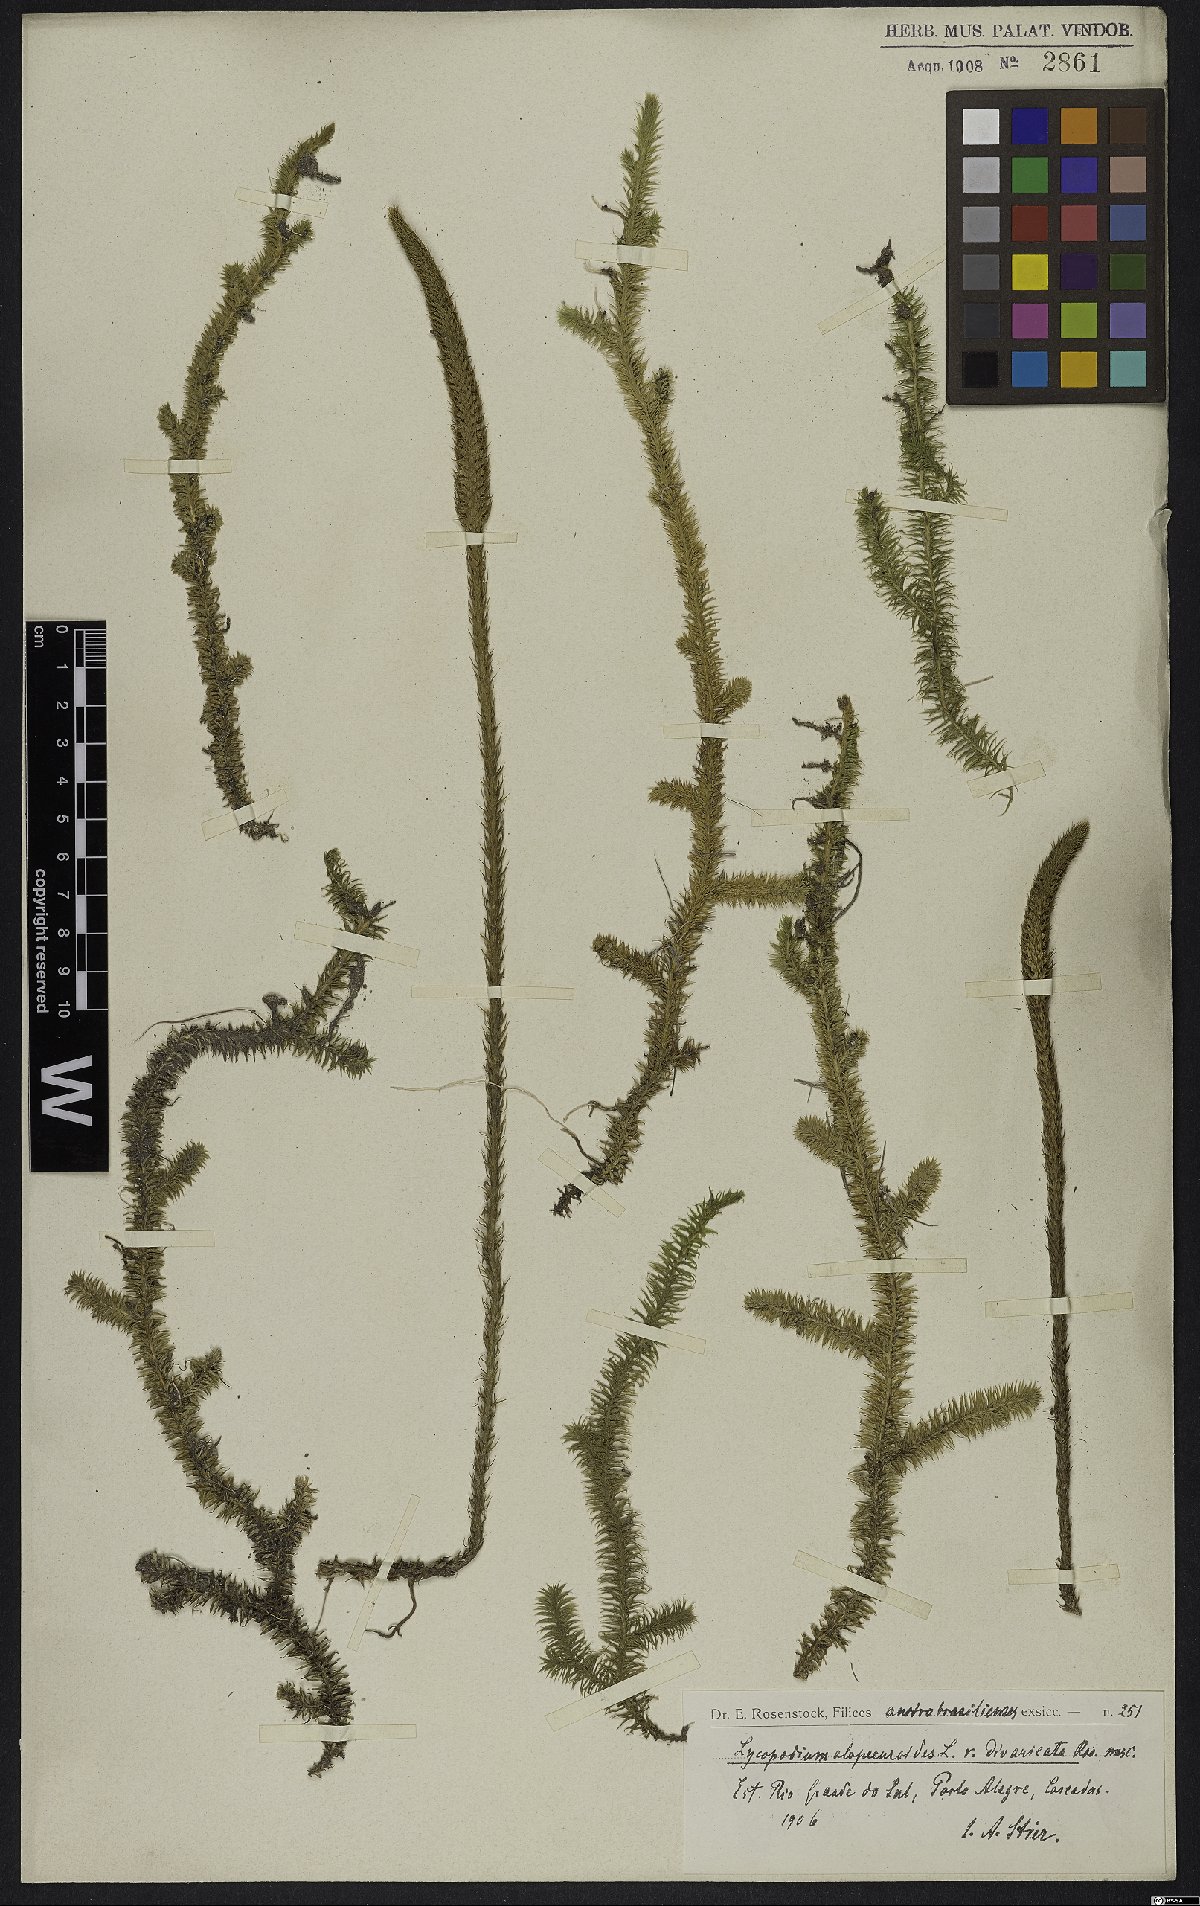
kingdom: Plantae
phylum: Tracheophyta
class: Lycopodiopsida
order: Lycopodiales
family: Lycopodiaceae
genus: Lycopodiella
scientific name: Lycopodiella alopecuroides
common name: Foxtail clubmoss
